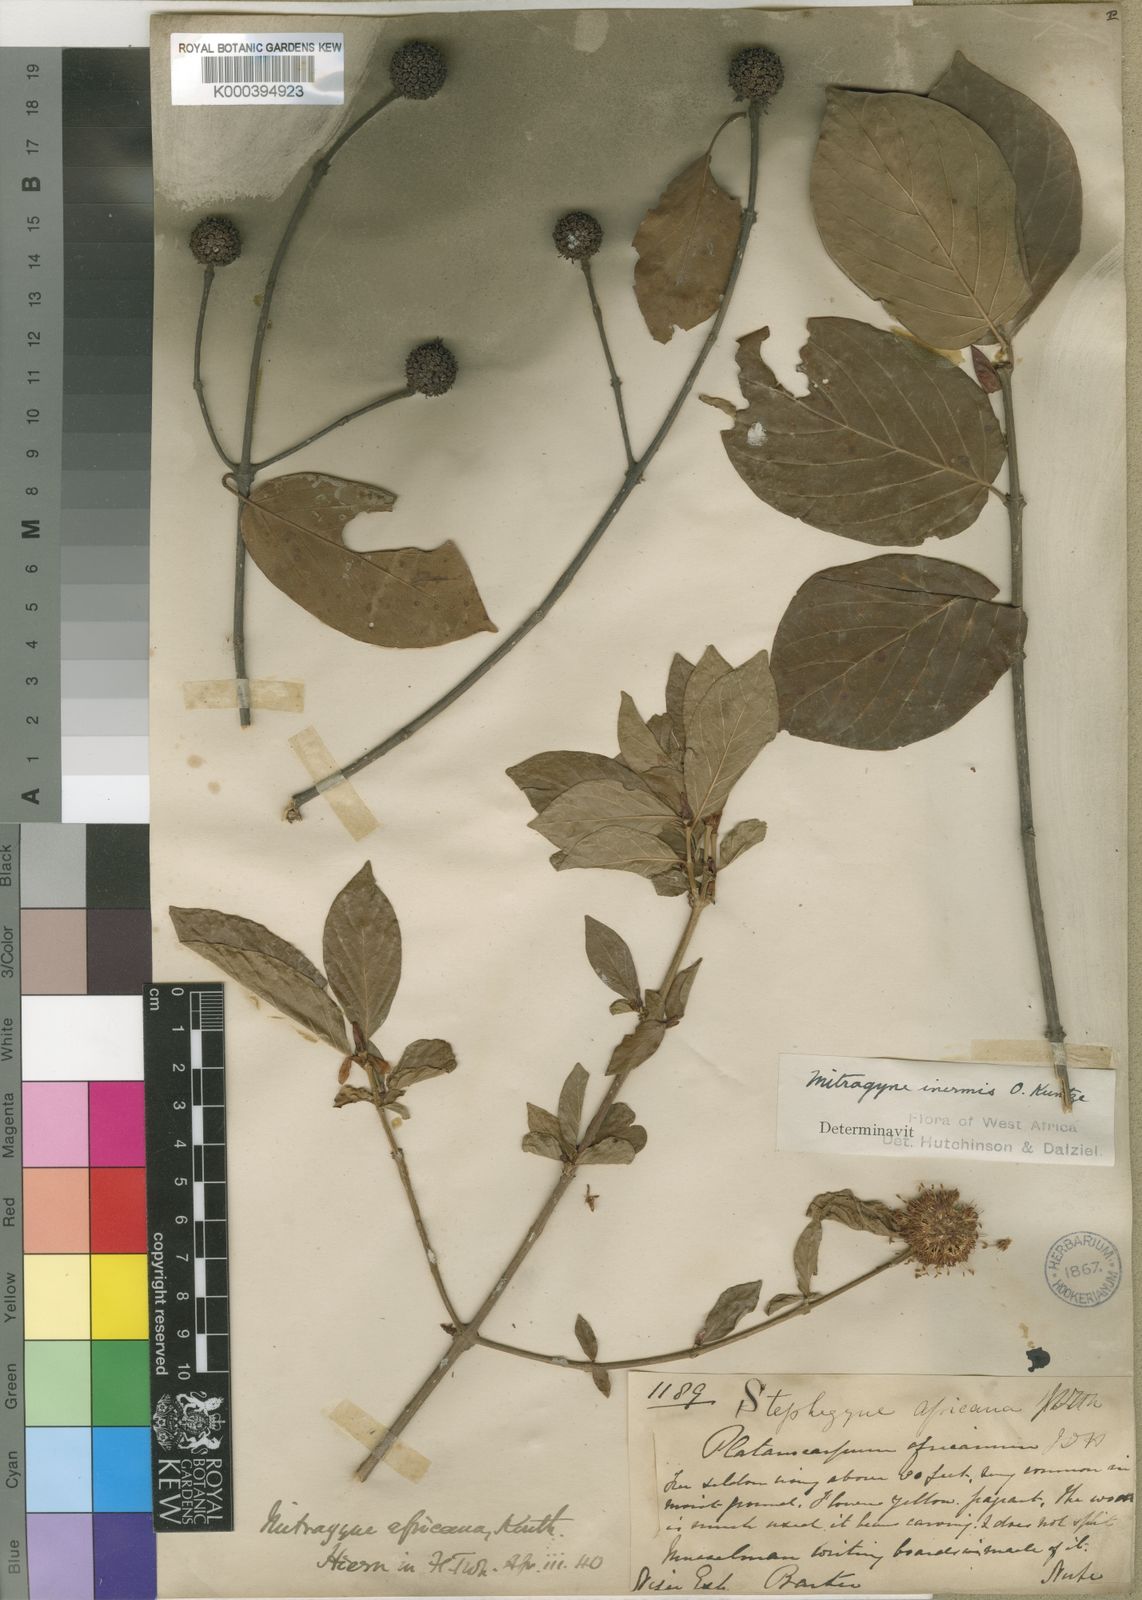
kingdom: Plantae
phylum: Tracheophyta
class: Magnoliopsida
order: Gentianales
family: Rubiaceae
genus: Mitragyna
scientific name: Mitragyna inermis
